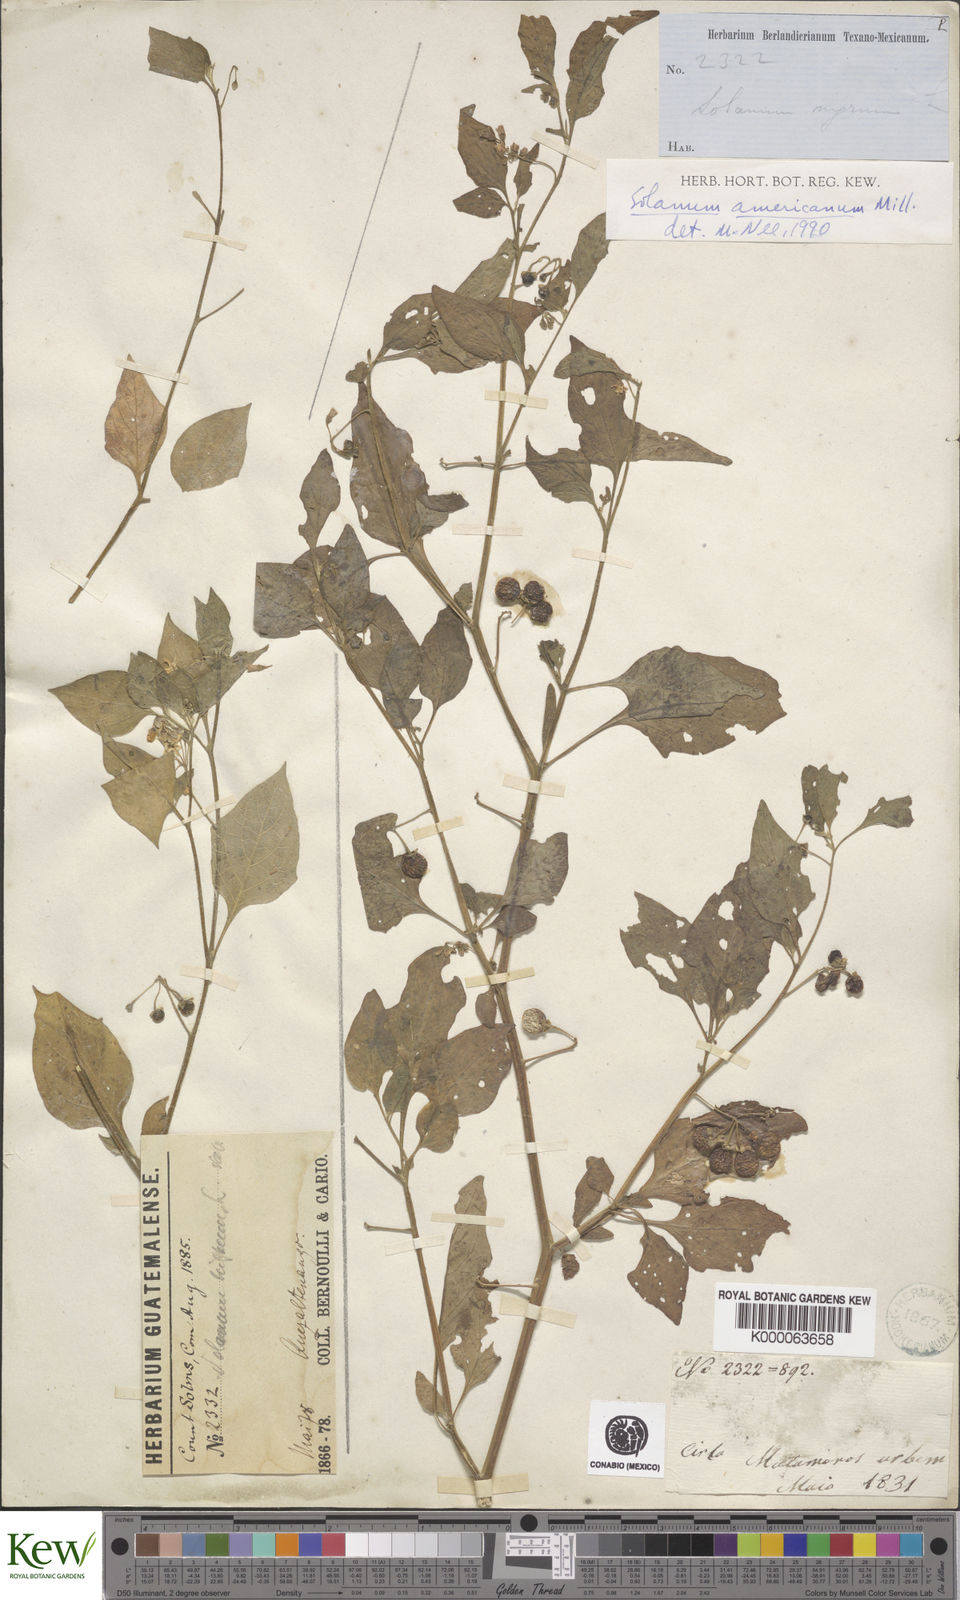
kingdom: Plantae
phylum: Tracheophyta
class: Magnoliopsida
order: Solanales
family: Solanaceae
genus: Solanum
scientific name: Solanum americanum
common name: American black nightshade
